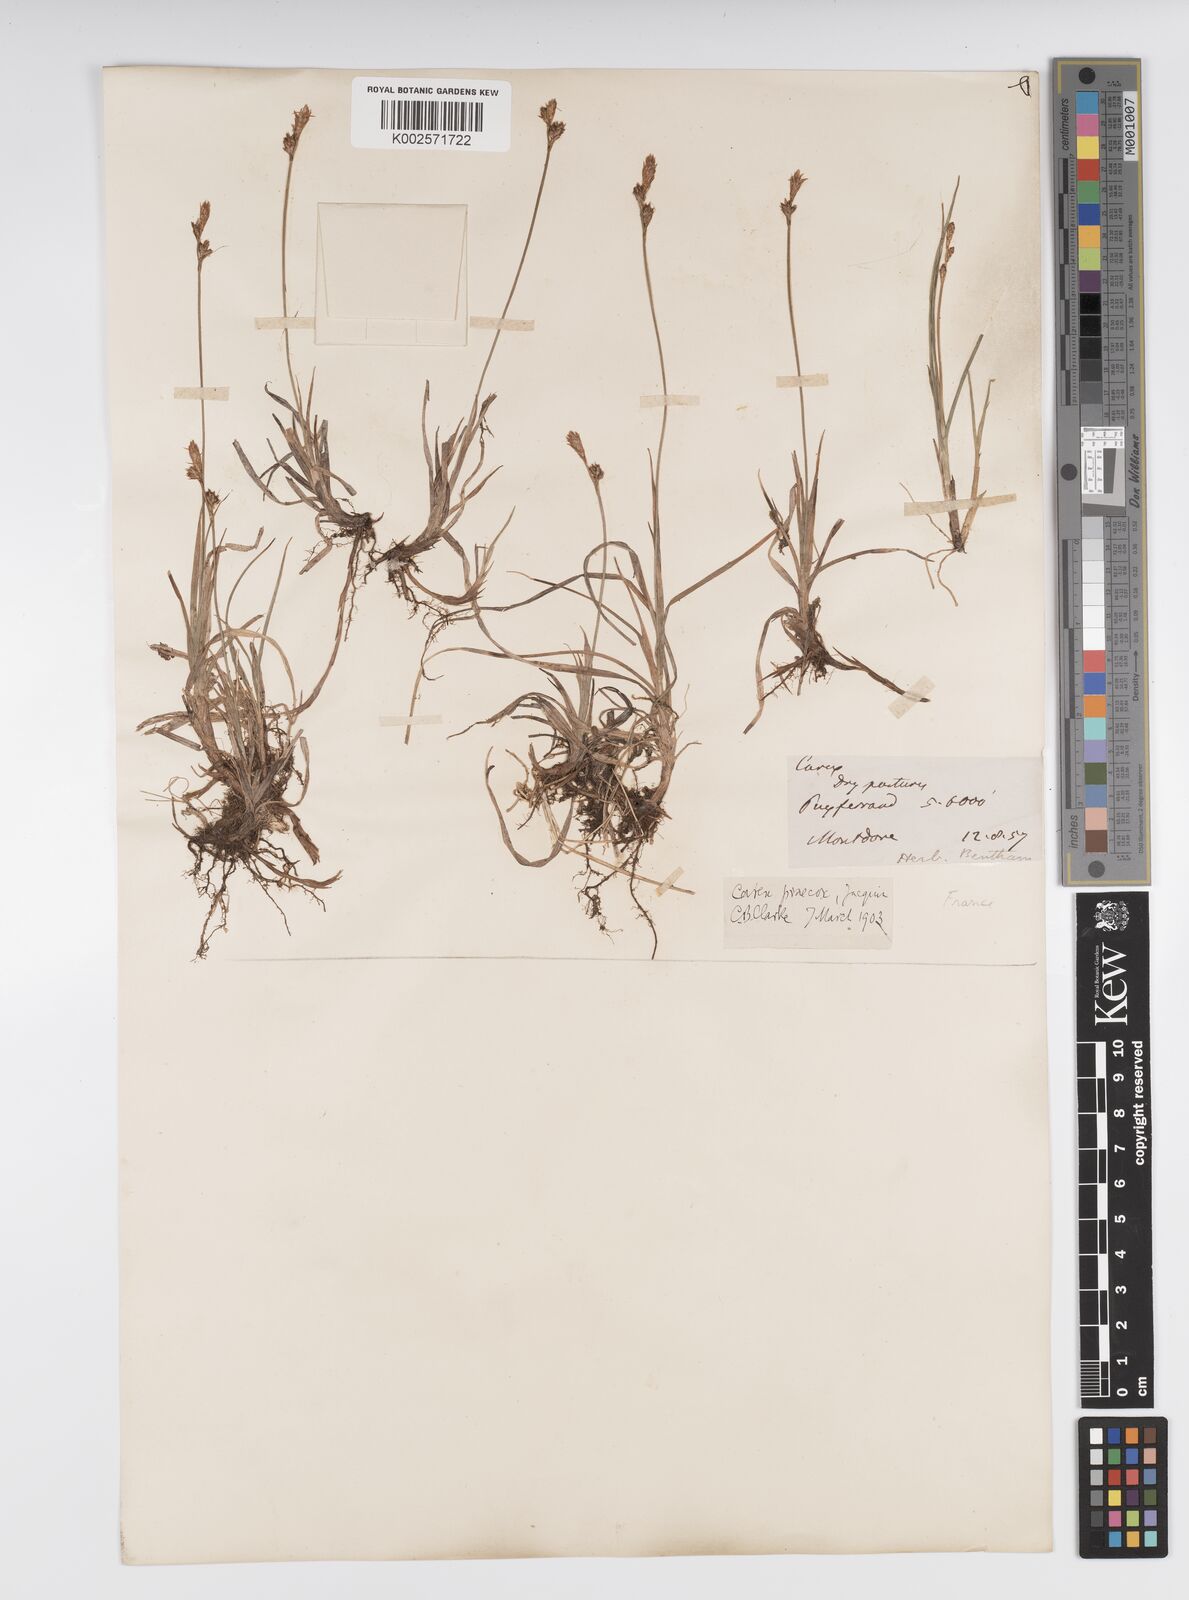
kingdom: Plantae
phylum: Tracheophyta
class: Liliopsida
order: Poales
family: Cyperaceae
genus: Carex
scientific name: Carex caryophyllea
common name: Spring sedge
